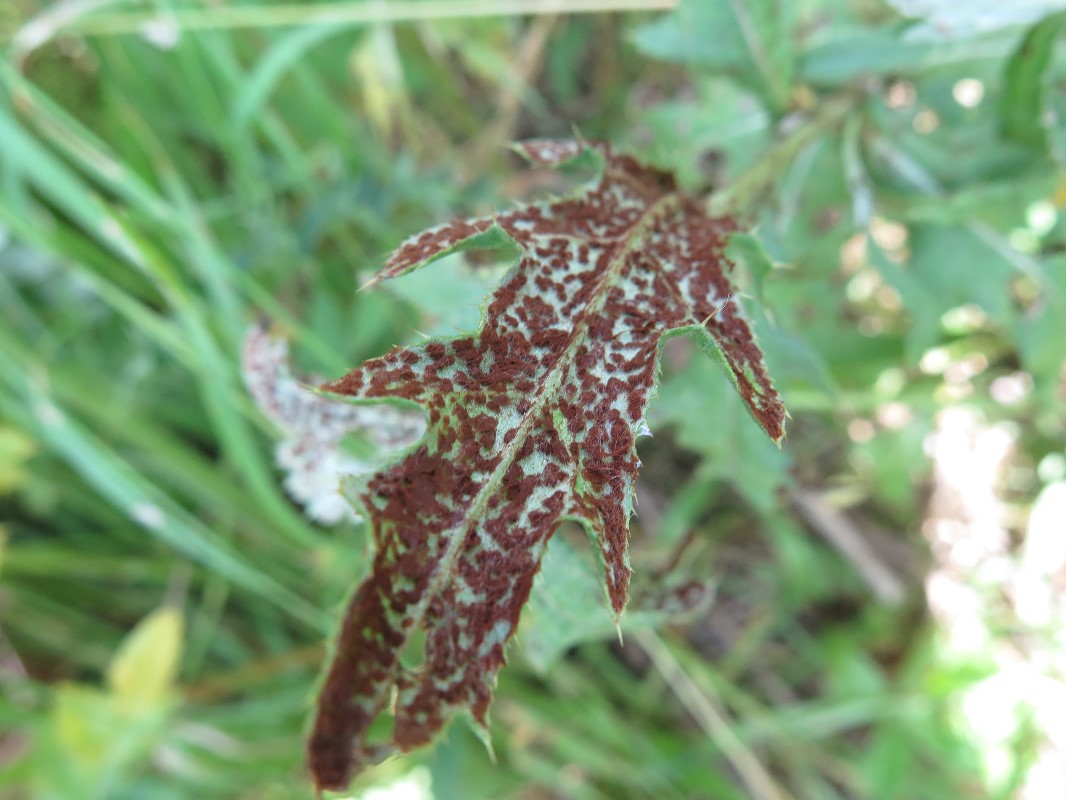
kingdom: Fungi
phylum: Basidiomycota
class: Pucciniomycetes
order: Pucciniales
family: Pucciniaceae
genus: Puccinia
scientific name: Puccinia suaveolens
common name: tidsel-tvecellerust
